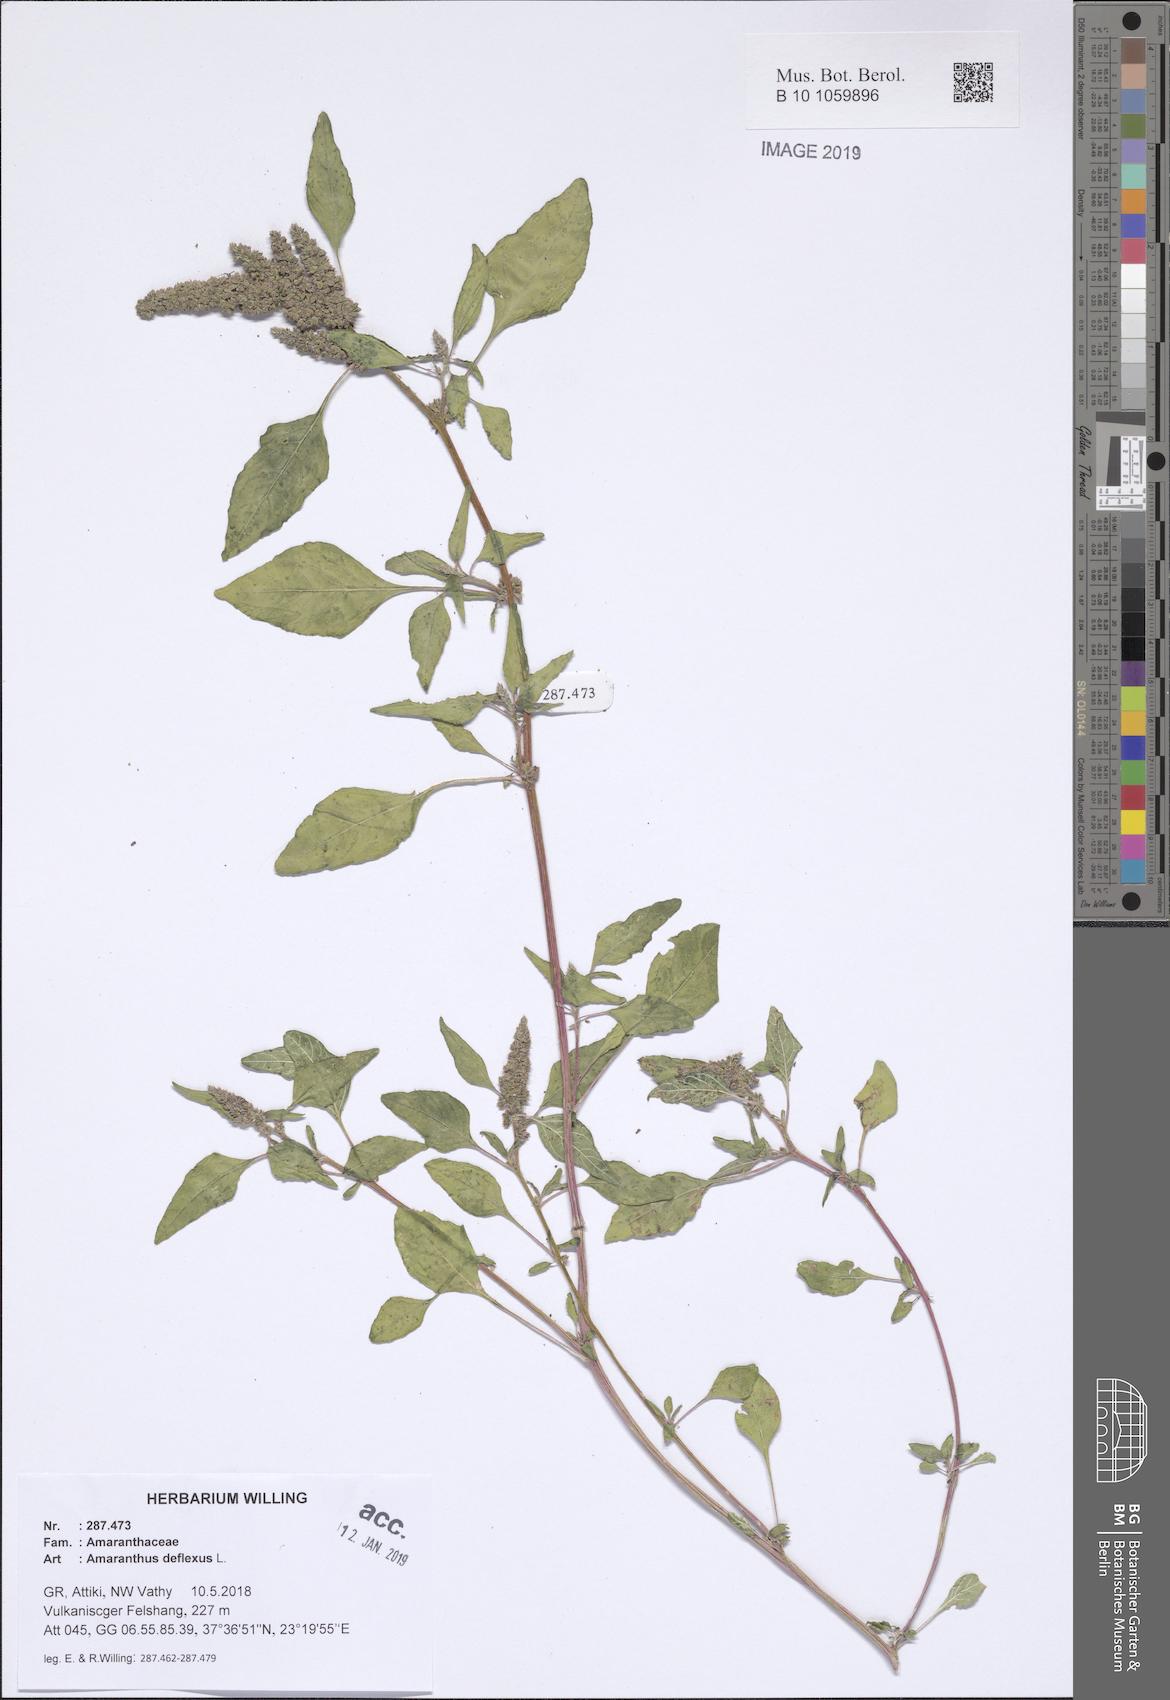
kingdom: Plantae
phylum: Tracheophyta
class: Magnoliopsida
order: Caryophyllales
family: Amaranthaceae
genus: Amaranthus
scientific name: Amaranthus deflexus
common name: Perennial pigweed
